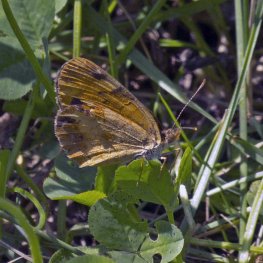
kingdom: Animalia
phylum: Arthropoda
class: Insecta
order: Lepidoptera
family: Nymphalidae
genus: Phyciodes
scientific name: Phyciodes tharos
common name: Northern Crescent
